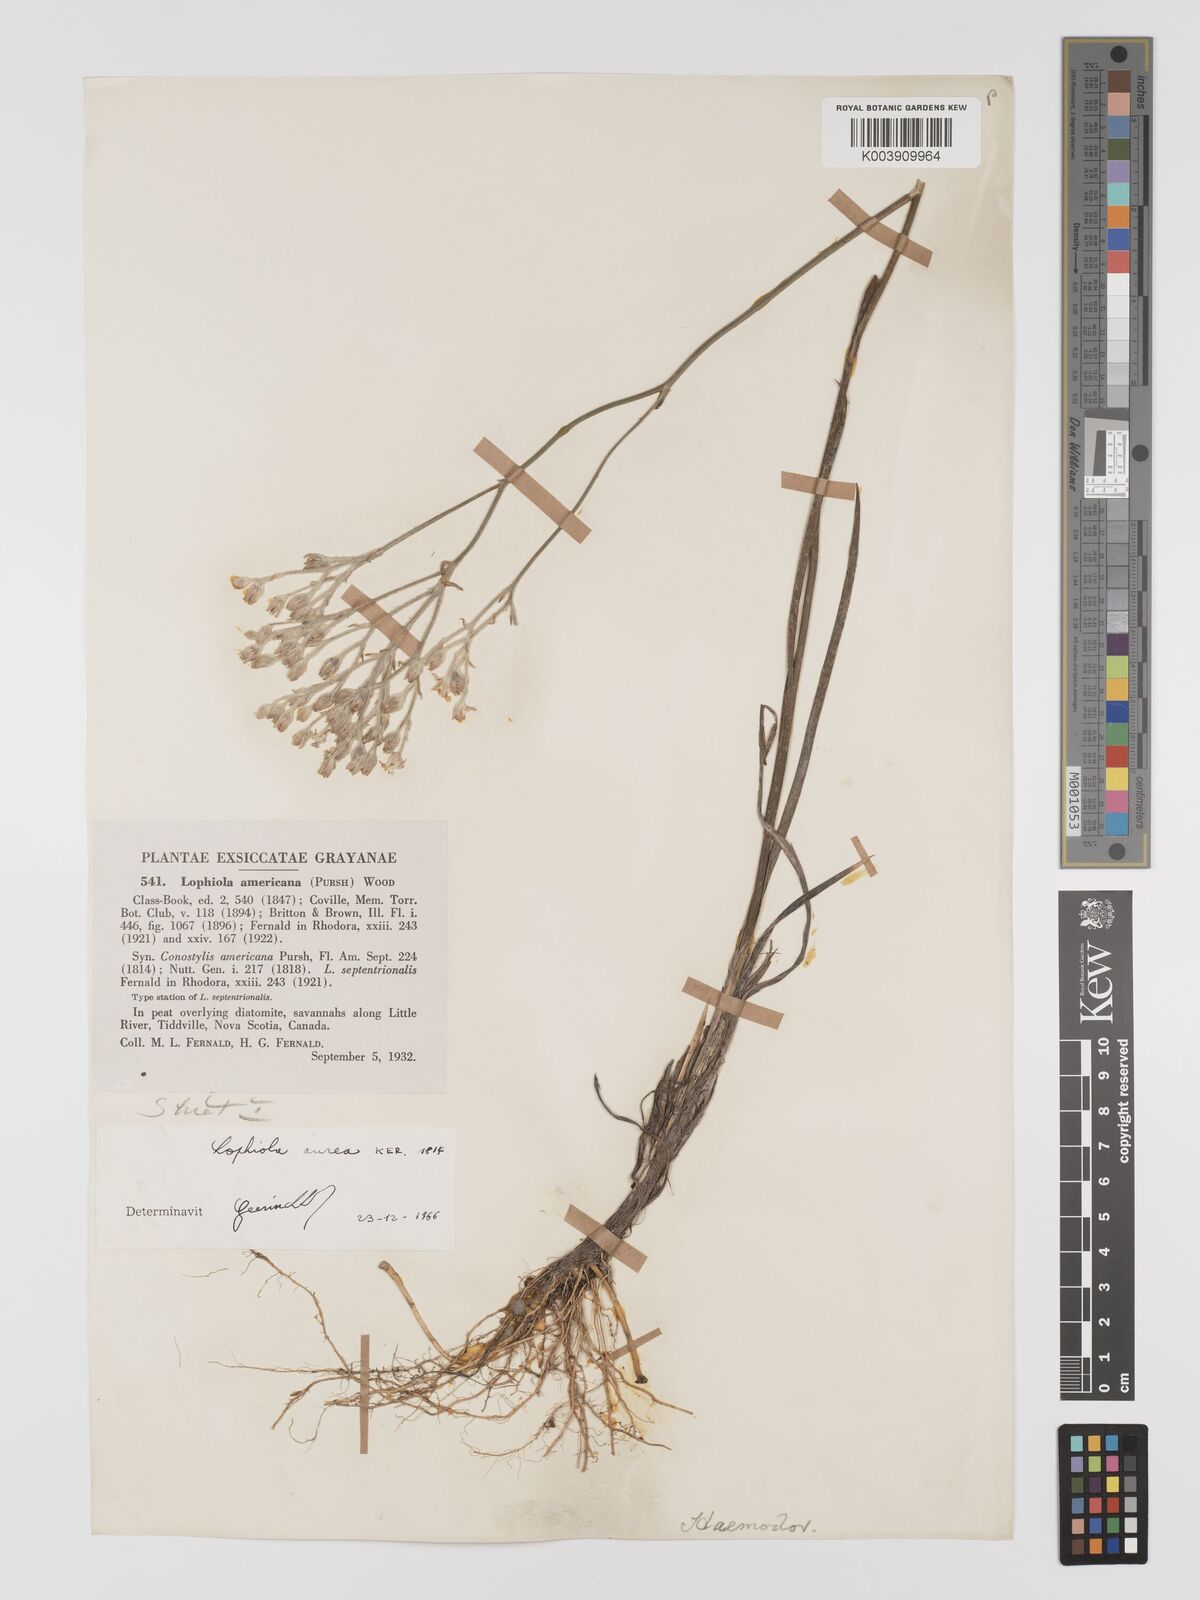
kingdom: Plantae
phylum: Tracheophyta
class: Liliopsida
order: Dioscoreales
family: Nartheciaceae
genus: Lophiola
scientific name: Lophiola aurea
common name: Golden-crest
